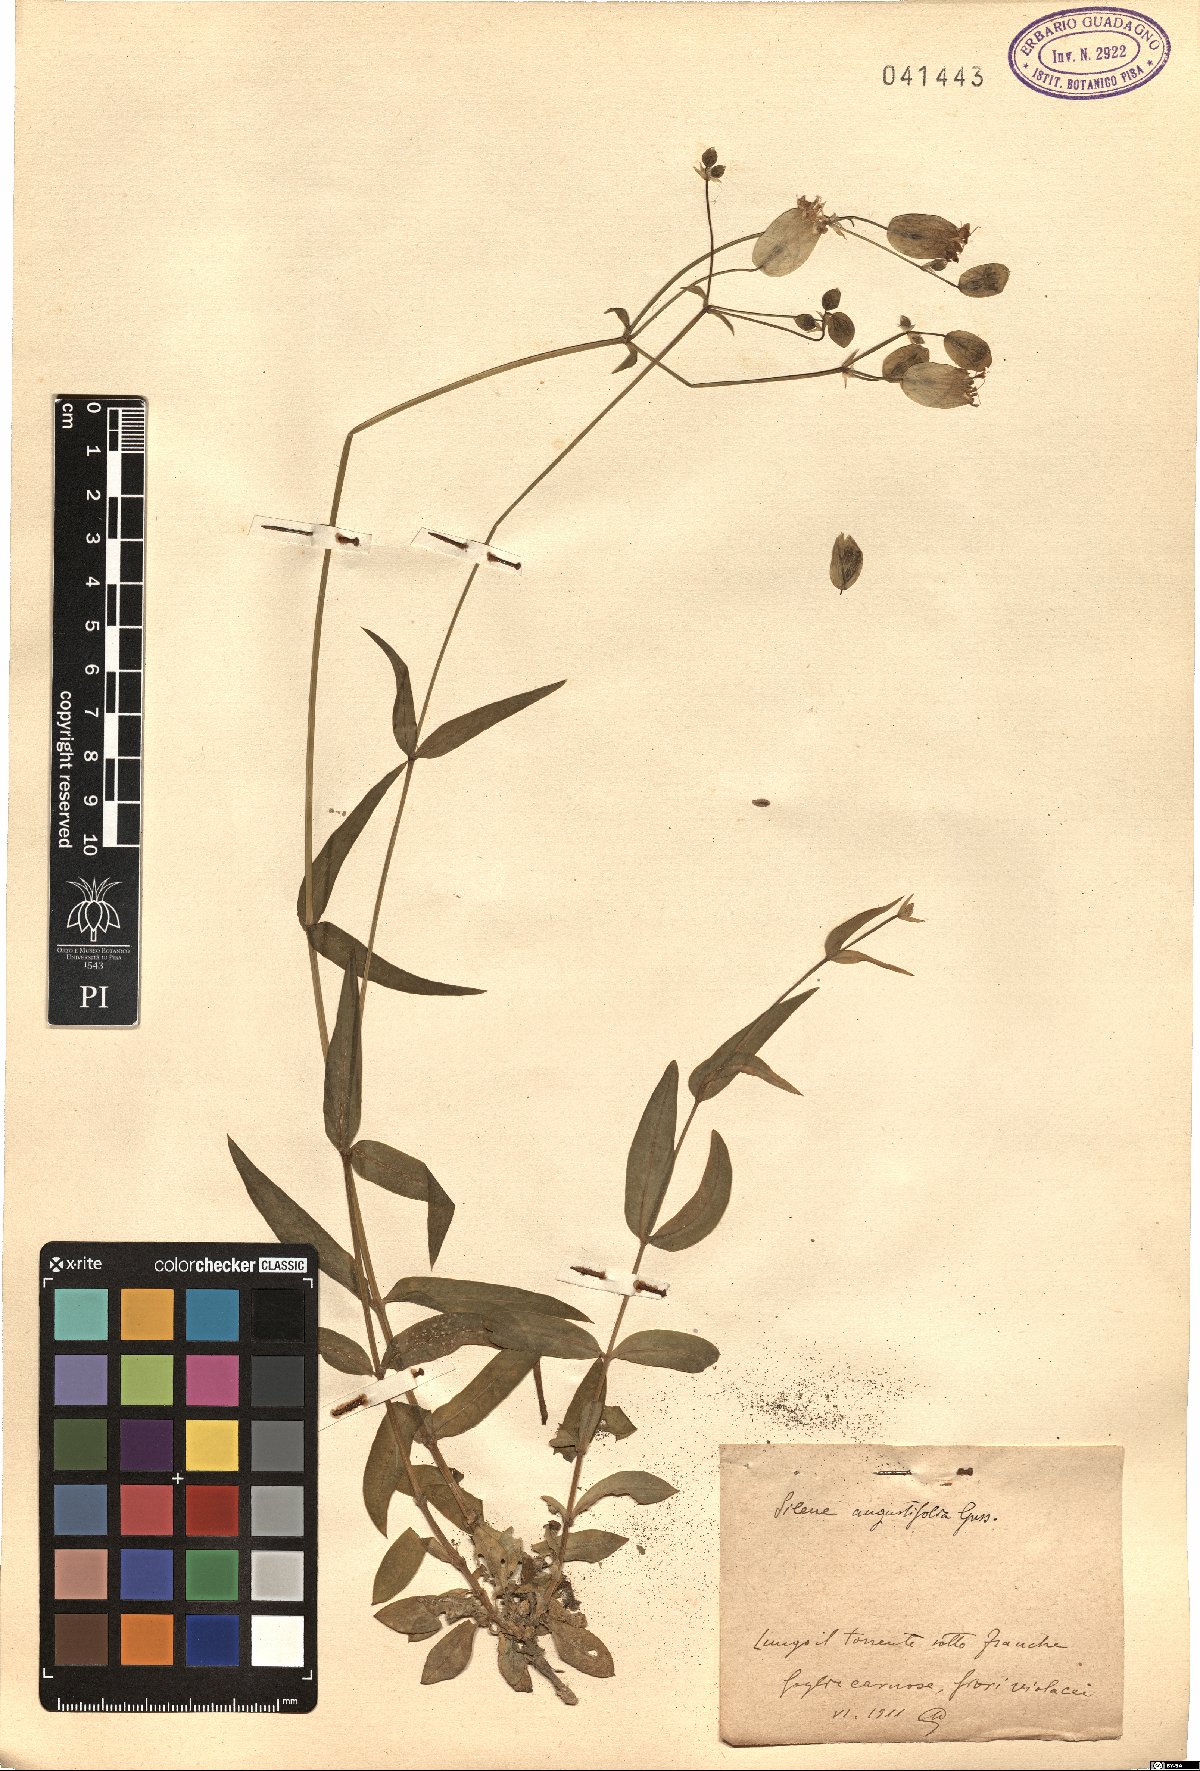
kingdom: Plantae
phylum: Tracheophyta
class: Magnoliopsida
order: Caryophyllales
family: Caryophyllaceae
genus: Silene
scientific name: Silene vulgaris
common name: Bladder campion
